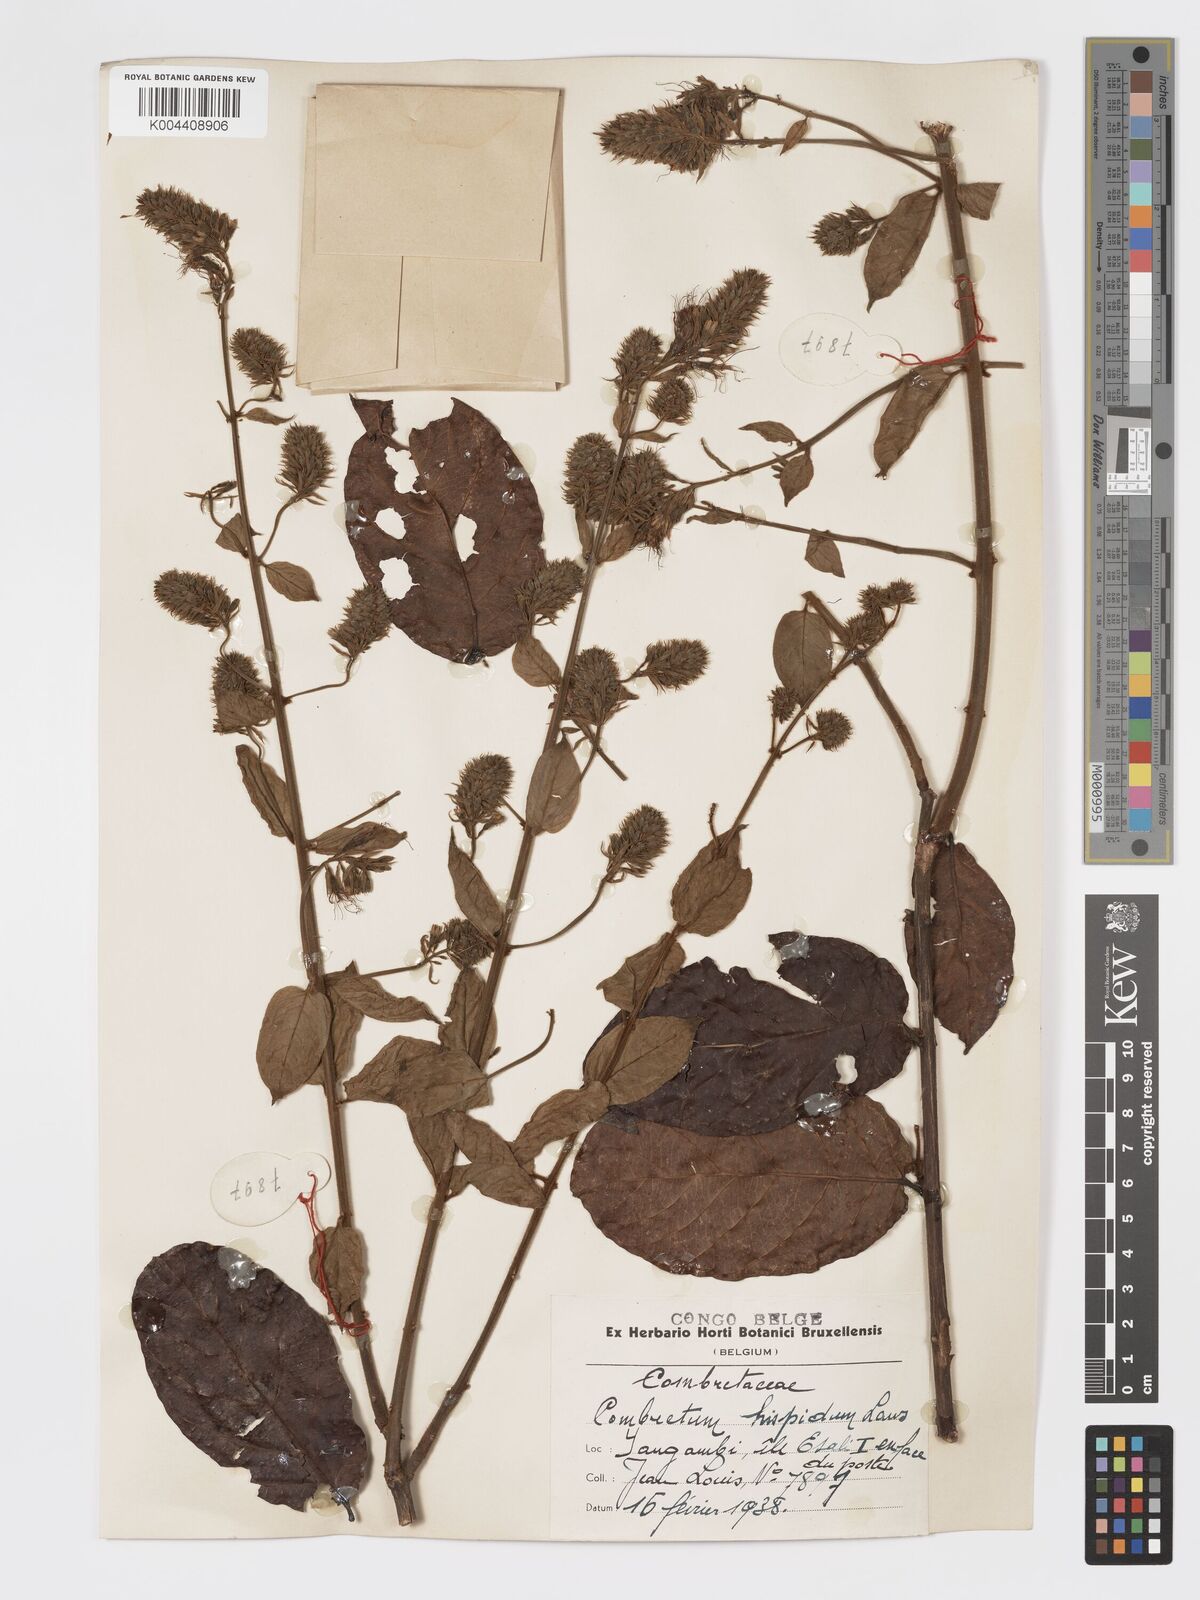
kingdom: Plantae
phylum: Tracheophyta
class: Magnoliopsida
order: Myrtales
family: Combretaceae
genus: Combretum
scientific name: Combretum comosum
